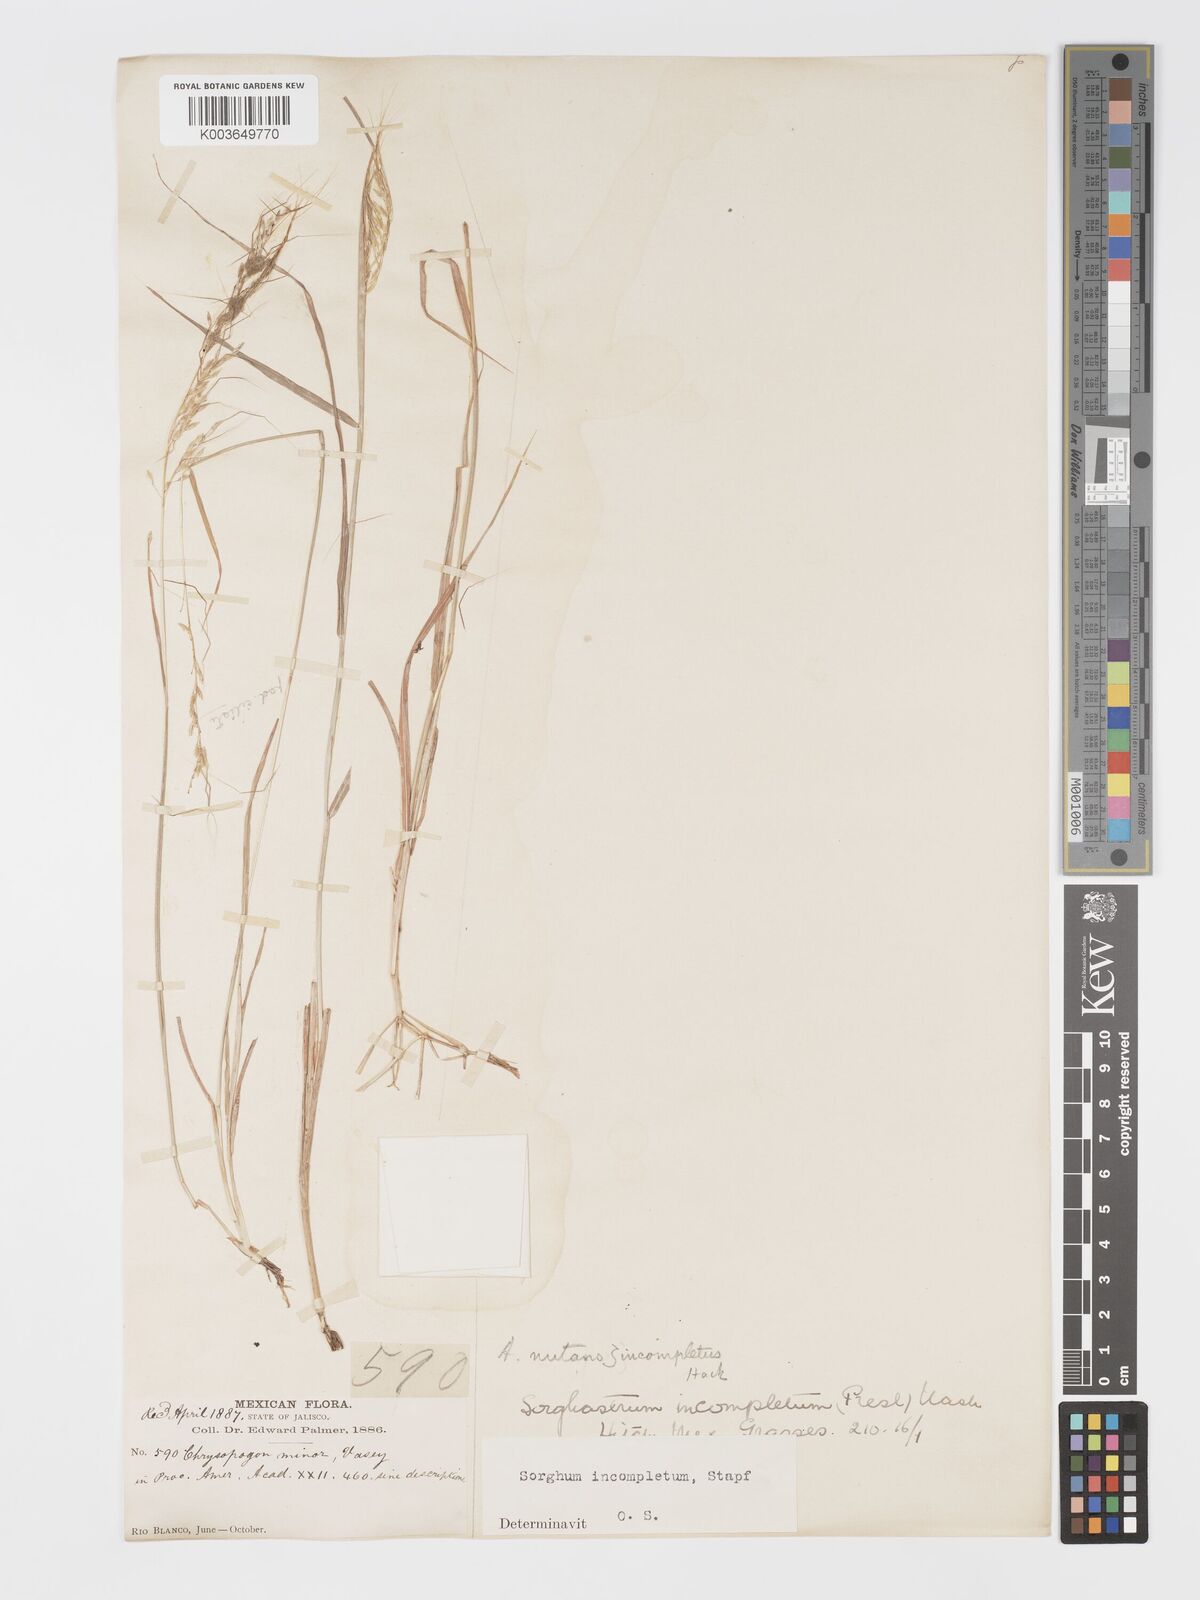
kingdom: Plantae
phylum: Tracheophyta
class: Liliopsida
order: Poales
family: Poaceae
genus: Sorghastrum
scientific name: Sorghastrum incompletum
